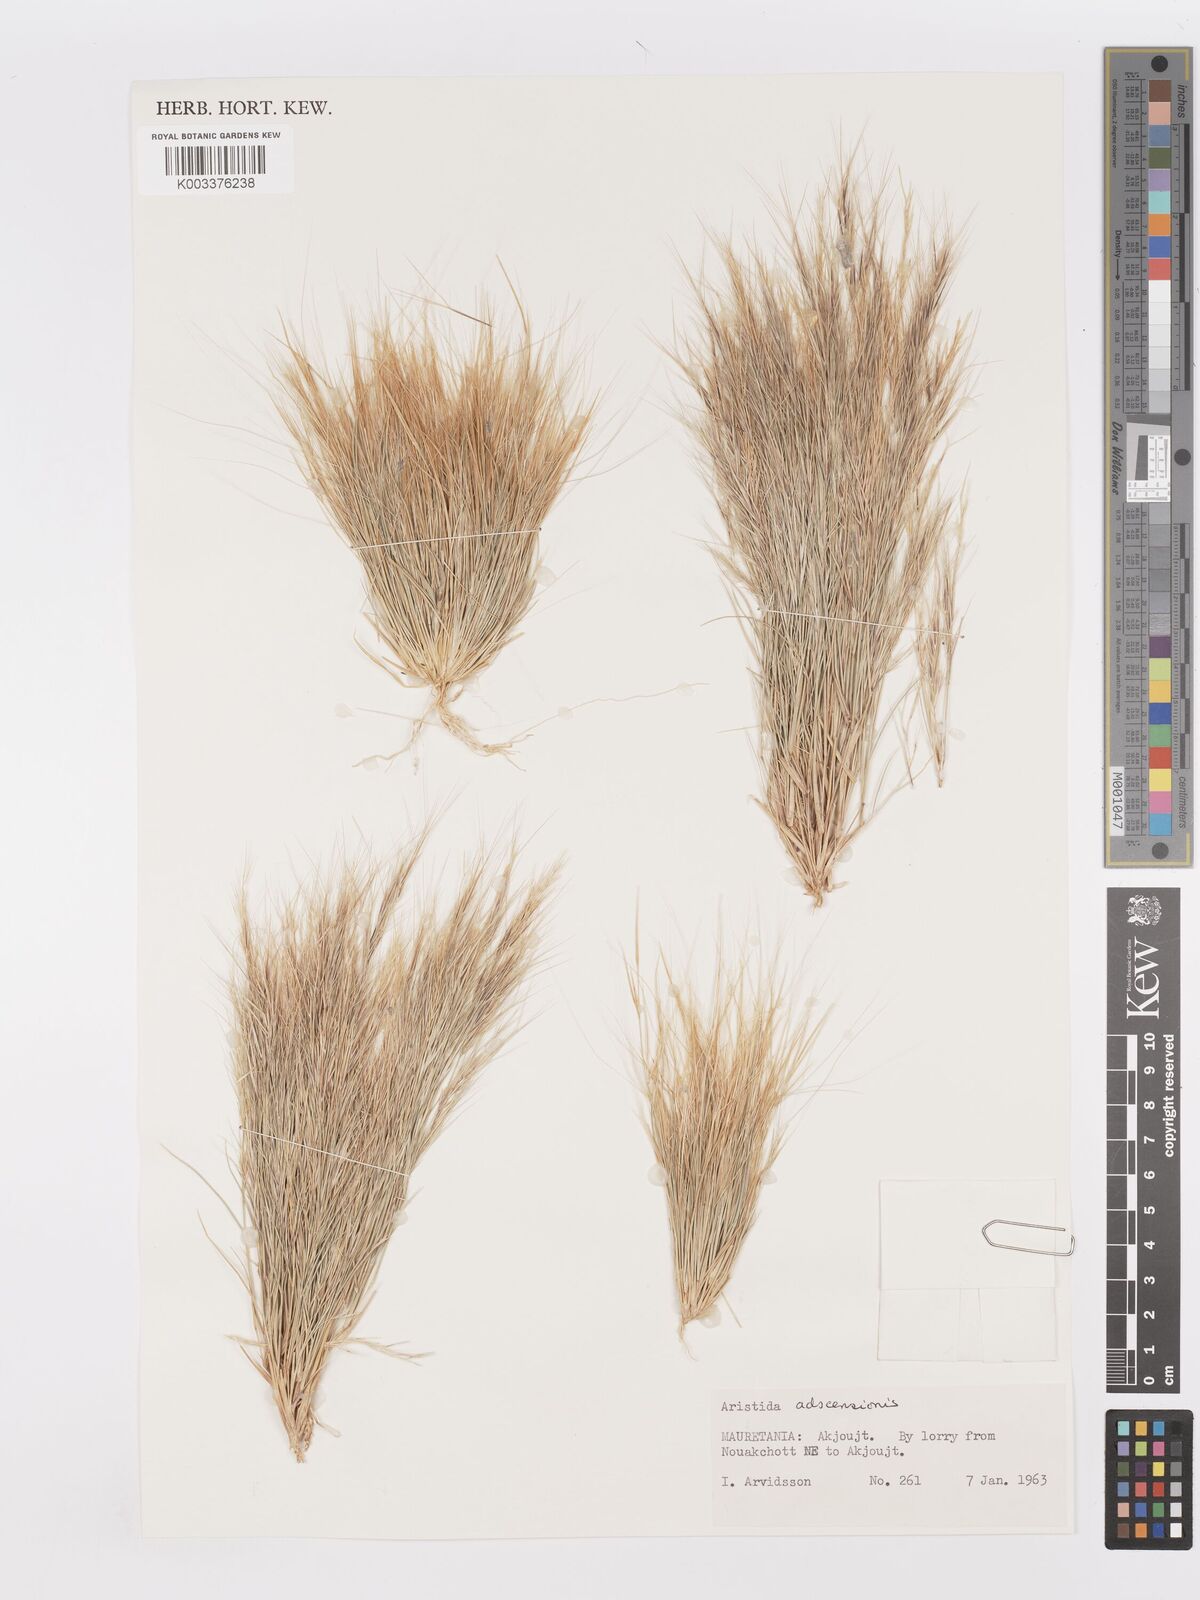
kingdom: Plantae
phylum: Tracheophyta
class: Liliopsida
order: Poales
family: Poaceae
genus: Aristida
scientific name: Aristida adscensionis
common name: Sixweeks threeawn
